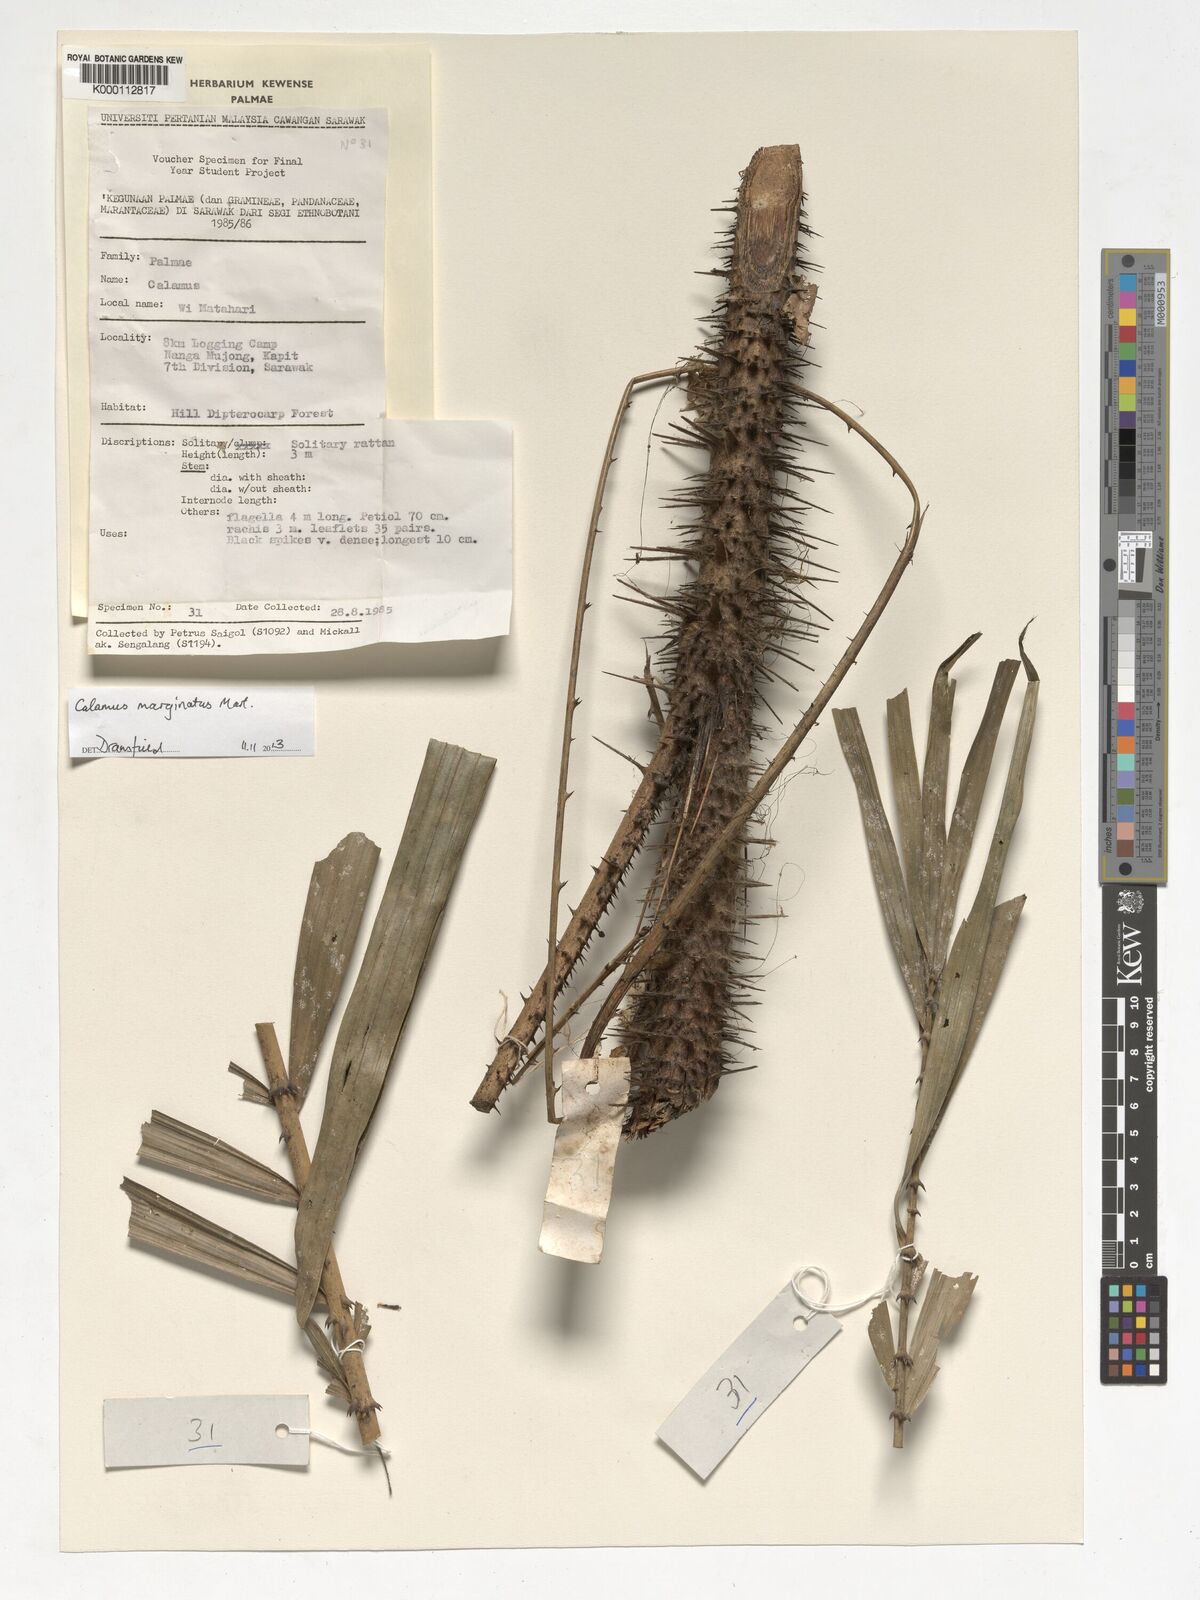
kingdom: Plantae
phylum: Tracheophyta
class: Liliopsida
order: Arecales
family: Arecaceae
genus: Calamus
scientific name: Calamus
